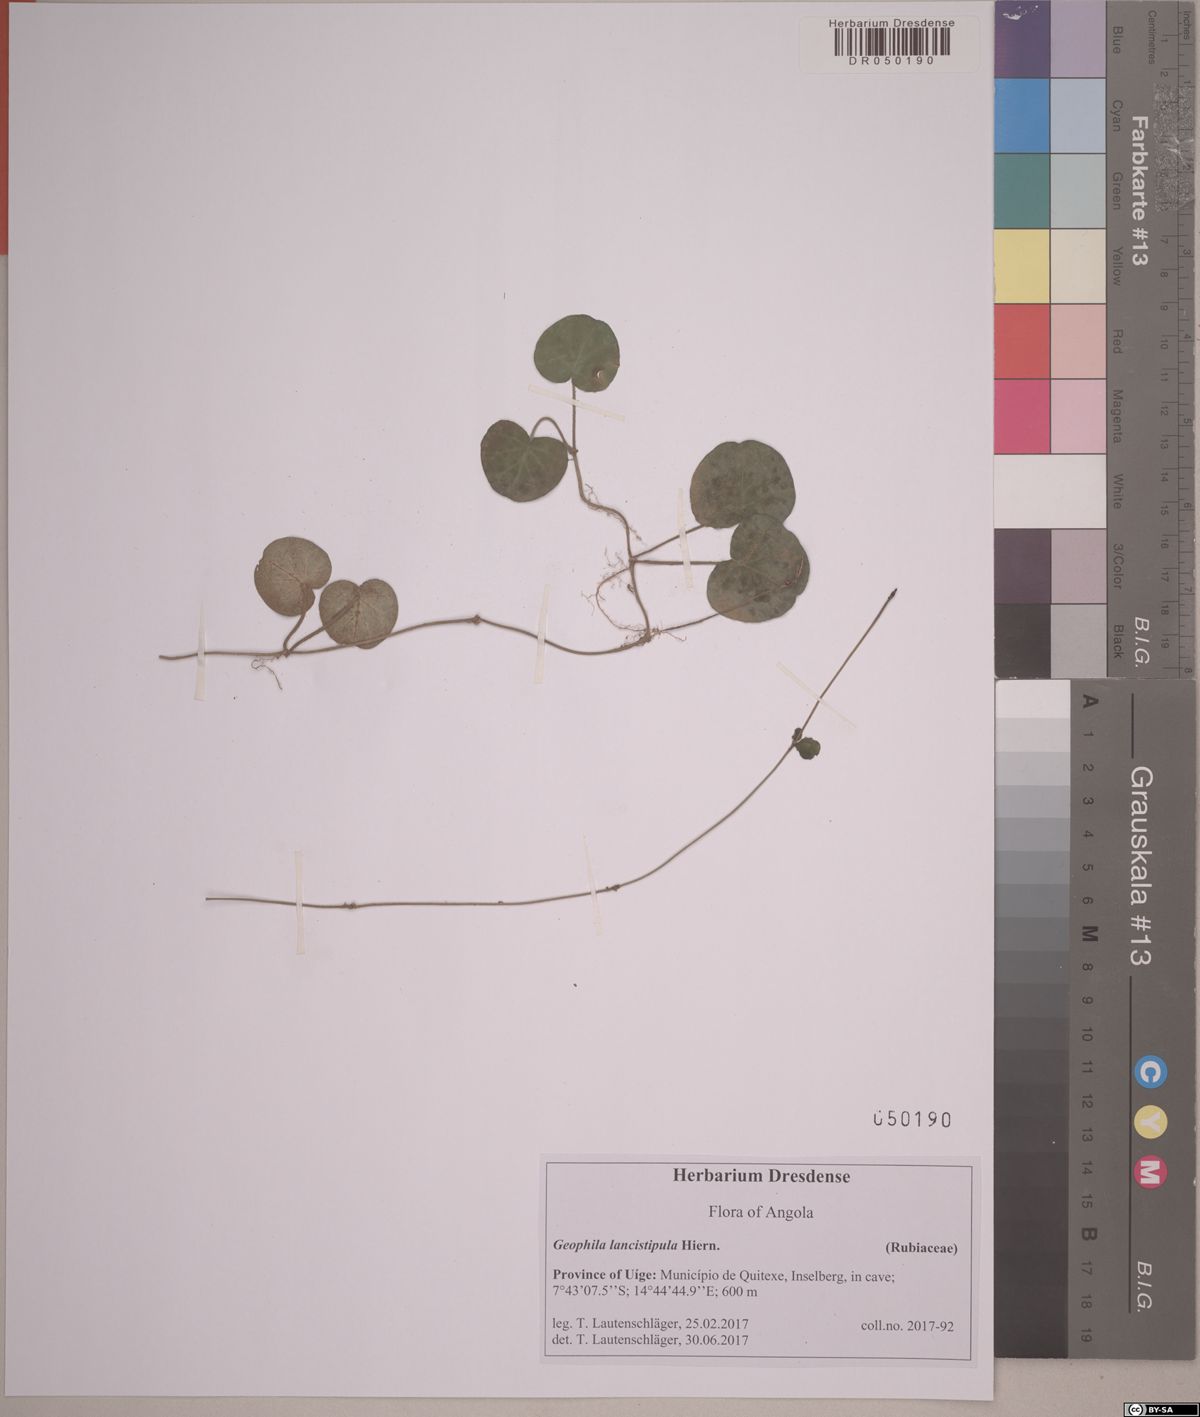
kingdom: Plantae
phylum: Tracheophyta
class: Magnoliopsida
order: Gentianales
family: Rubiaceae
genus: Geophila
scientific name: Geophila lancistipula
